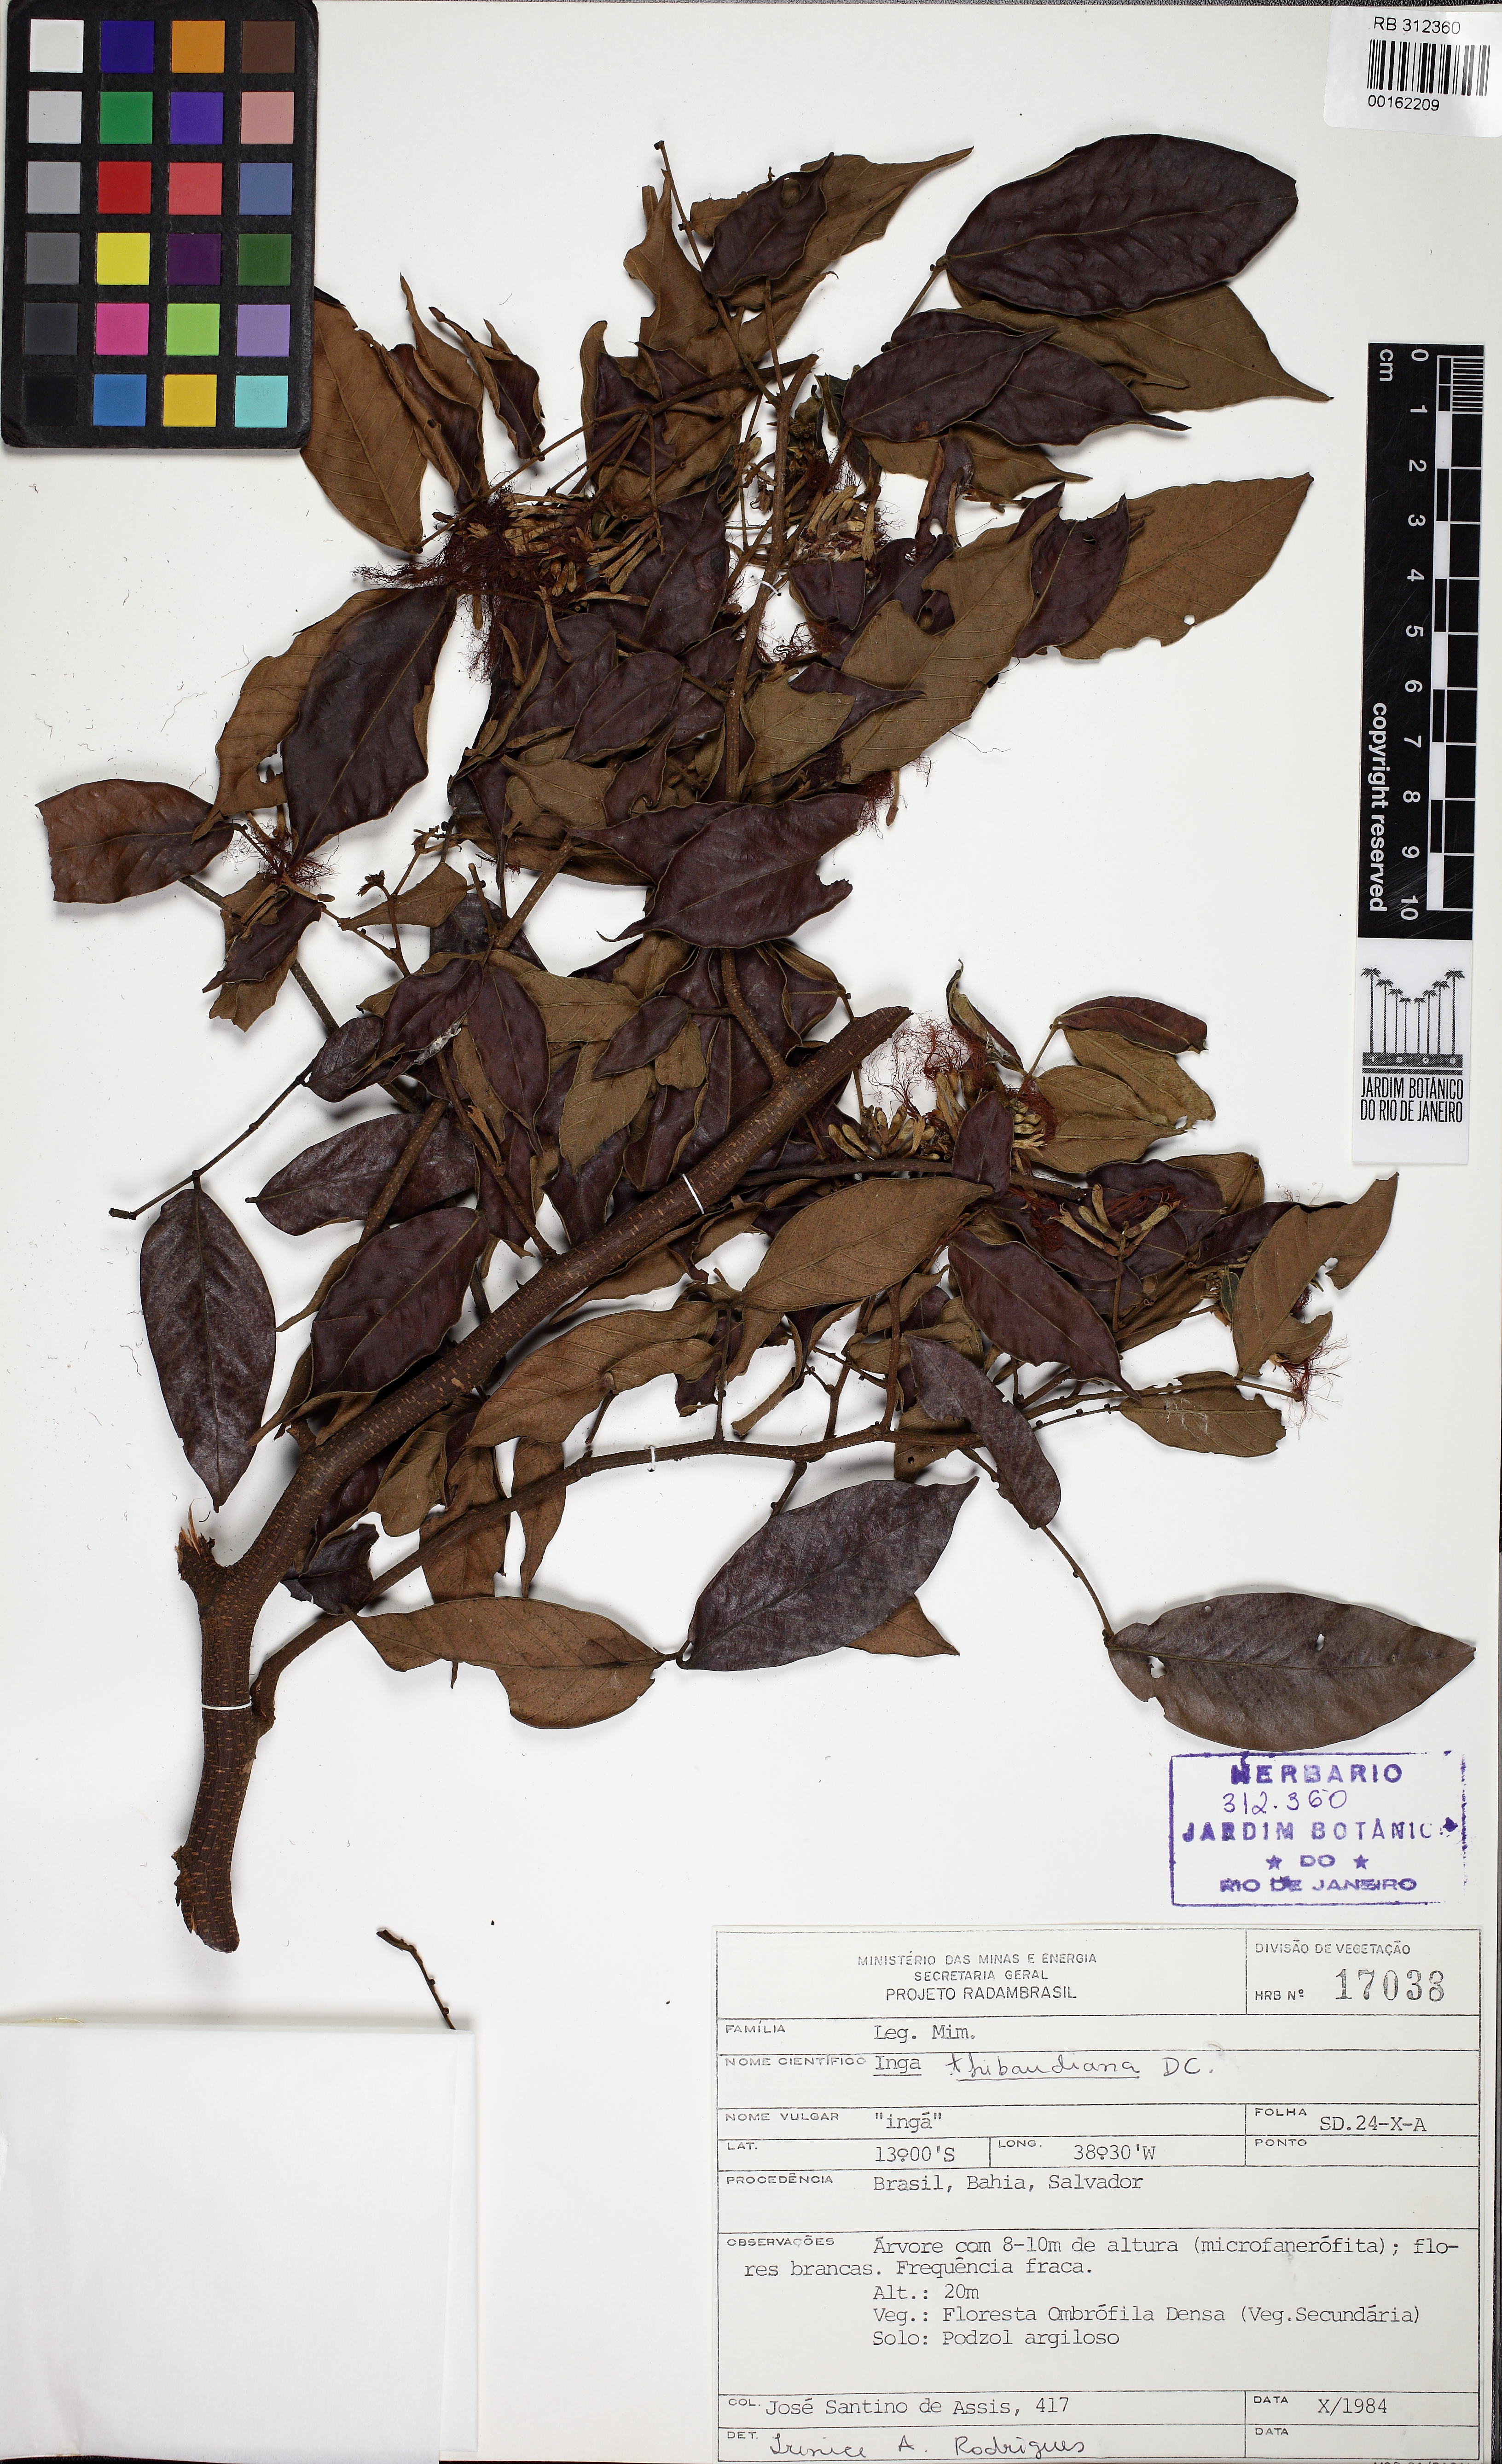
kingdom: Plantae
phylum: Tracheophyta
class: Magnoliopsida
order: Fabales
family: Fabaceae
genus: Inga
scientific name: Inga thibaudiana
